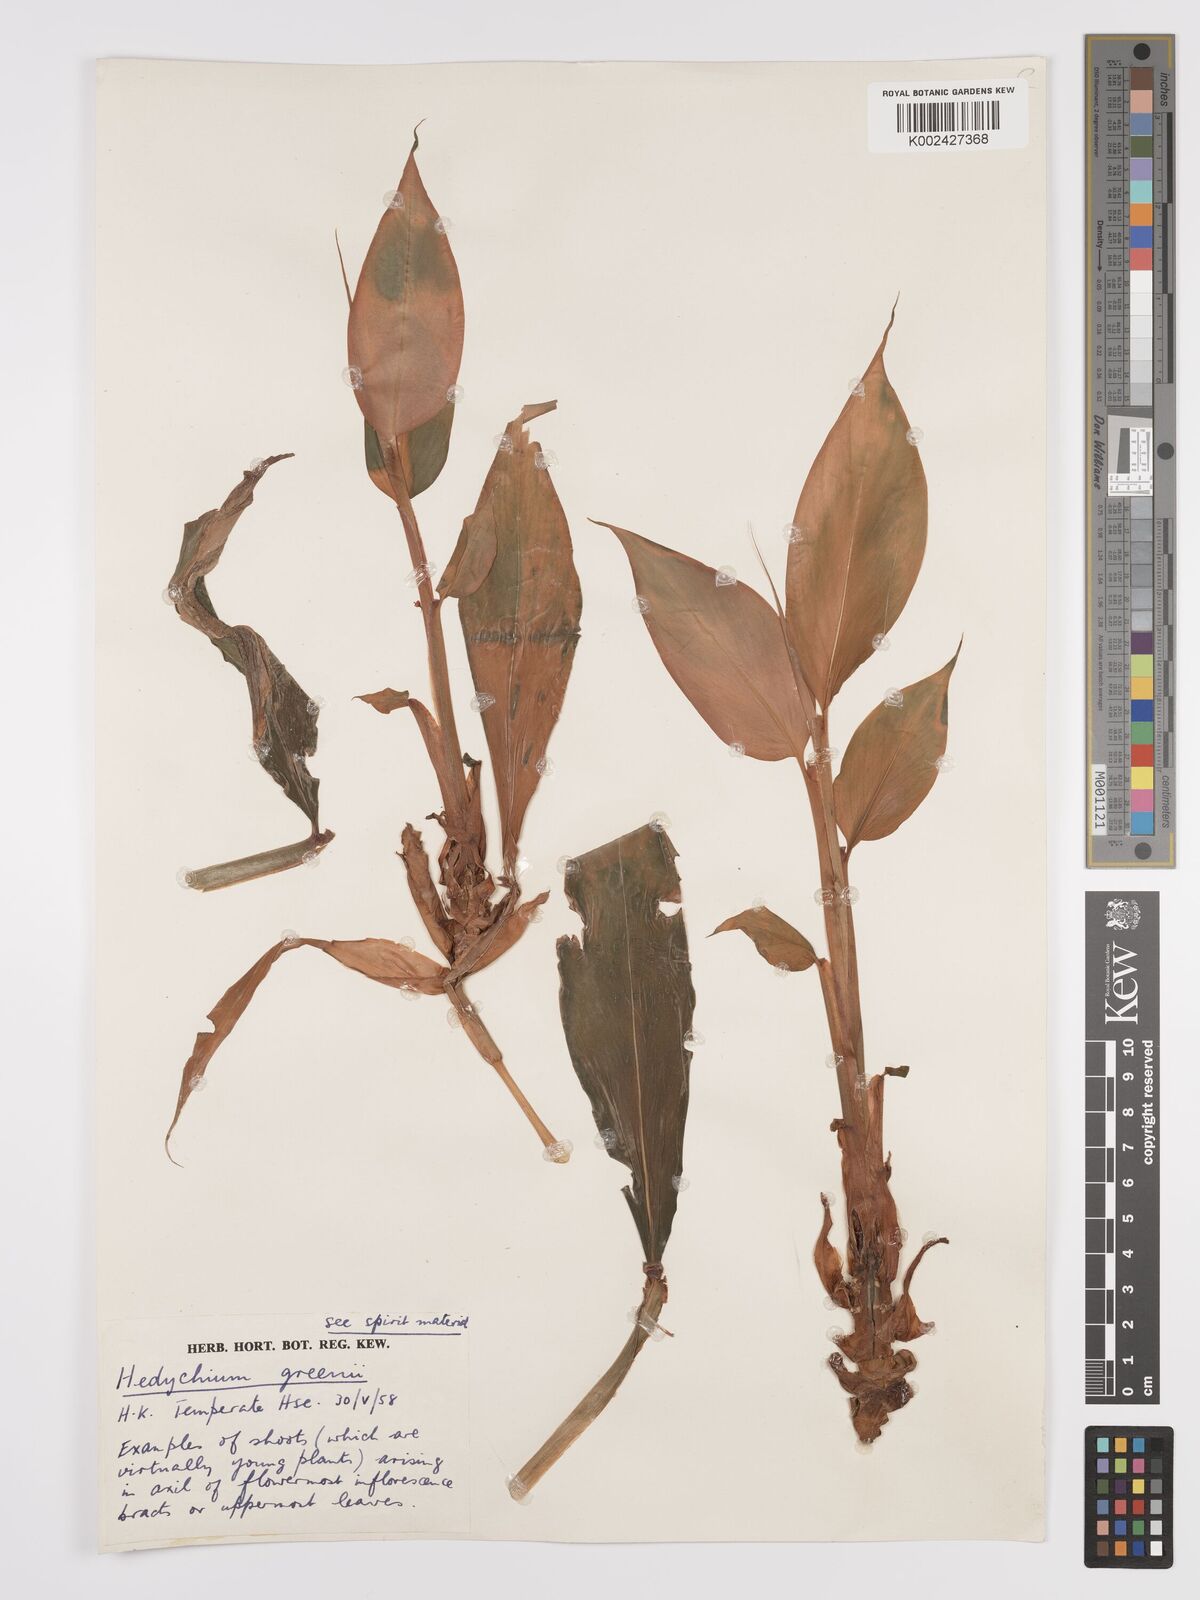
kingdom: Plantae
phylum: Tracheophyta
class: Liliopsida
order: Zingiberales
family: Zingiberaceae
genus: Hedychium
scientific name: Hedychium greenii
